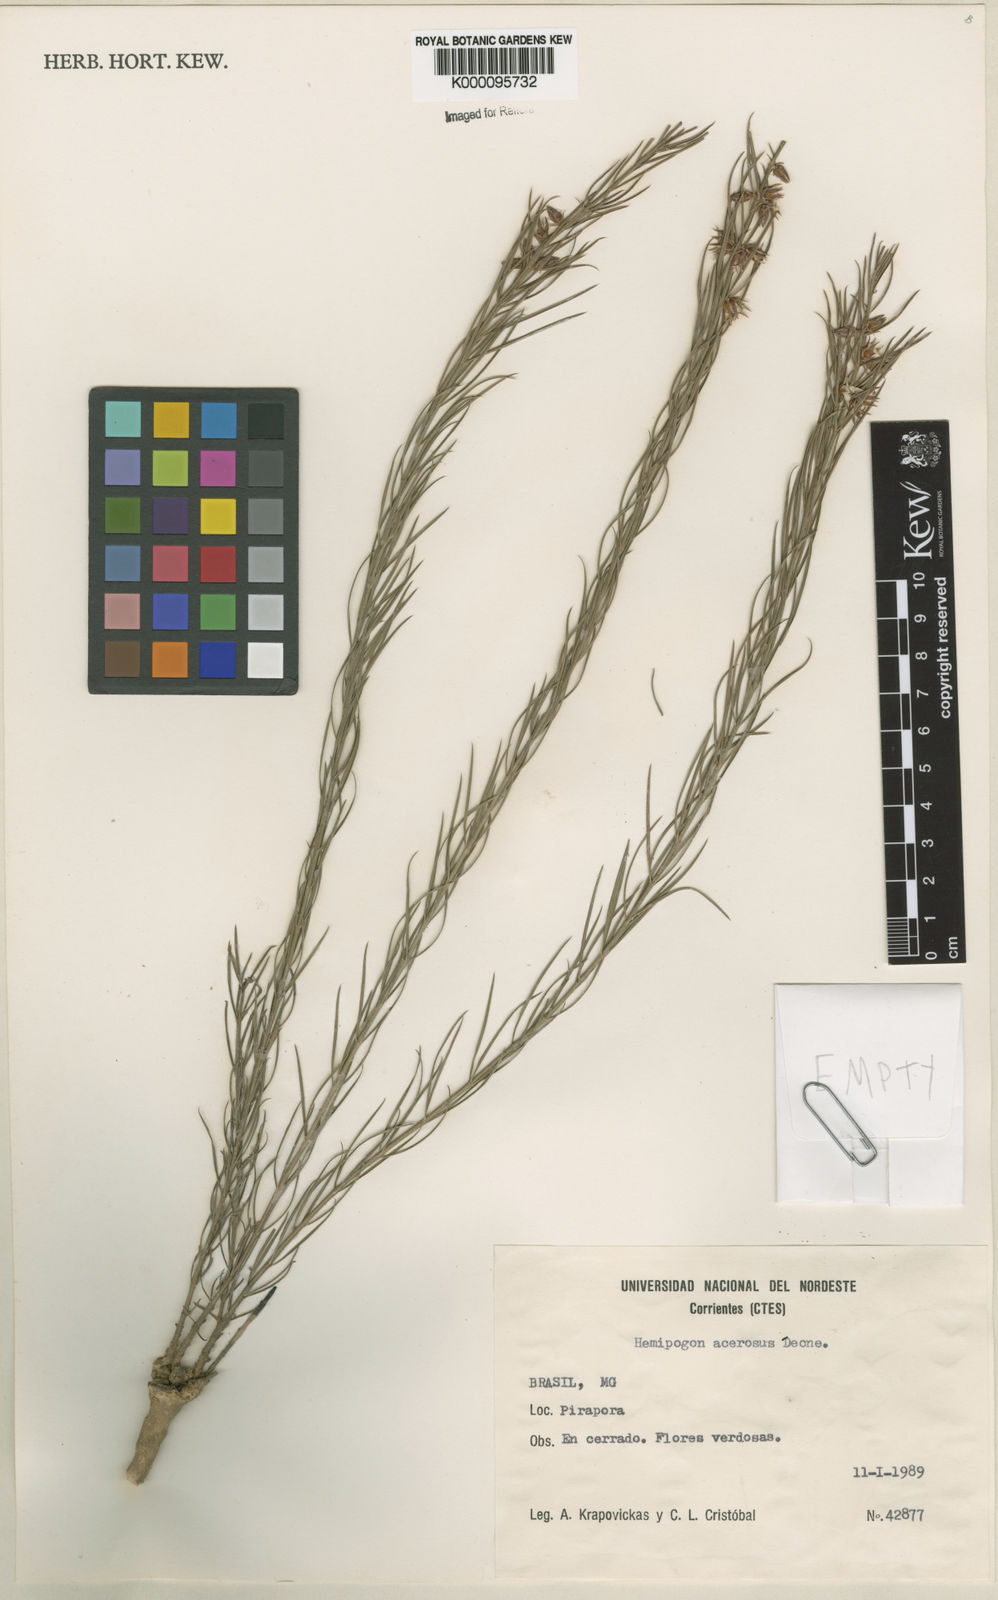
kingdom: Plantae
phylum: Tracheophyta
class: Magnoliopsida
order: Gentianales
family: Apocynaceae
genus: Hemipogon
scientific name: Hemipogon acerosus
